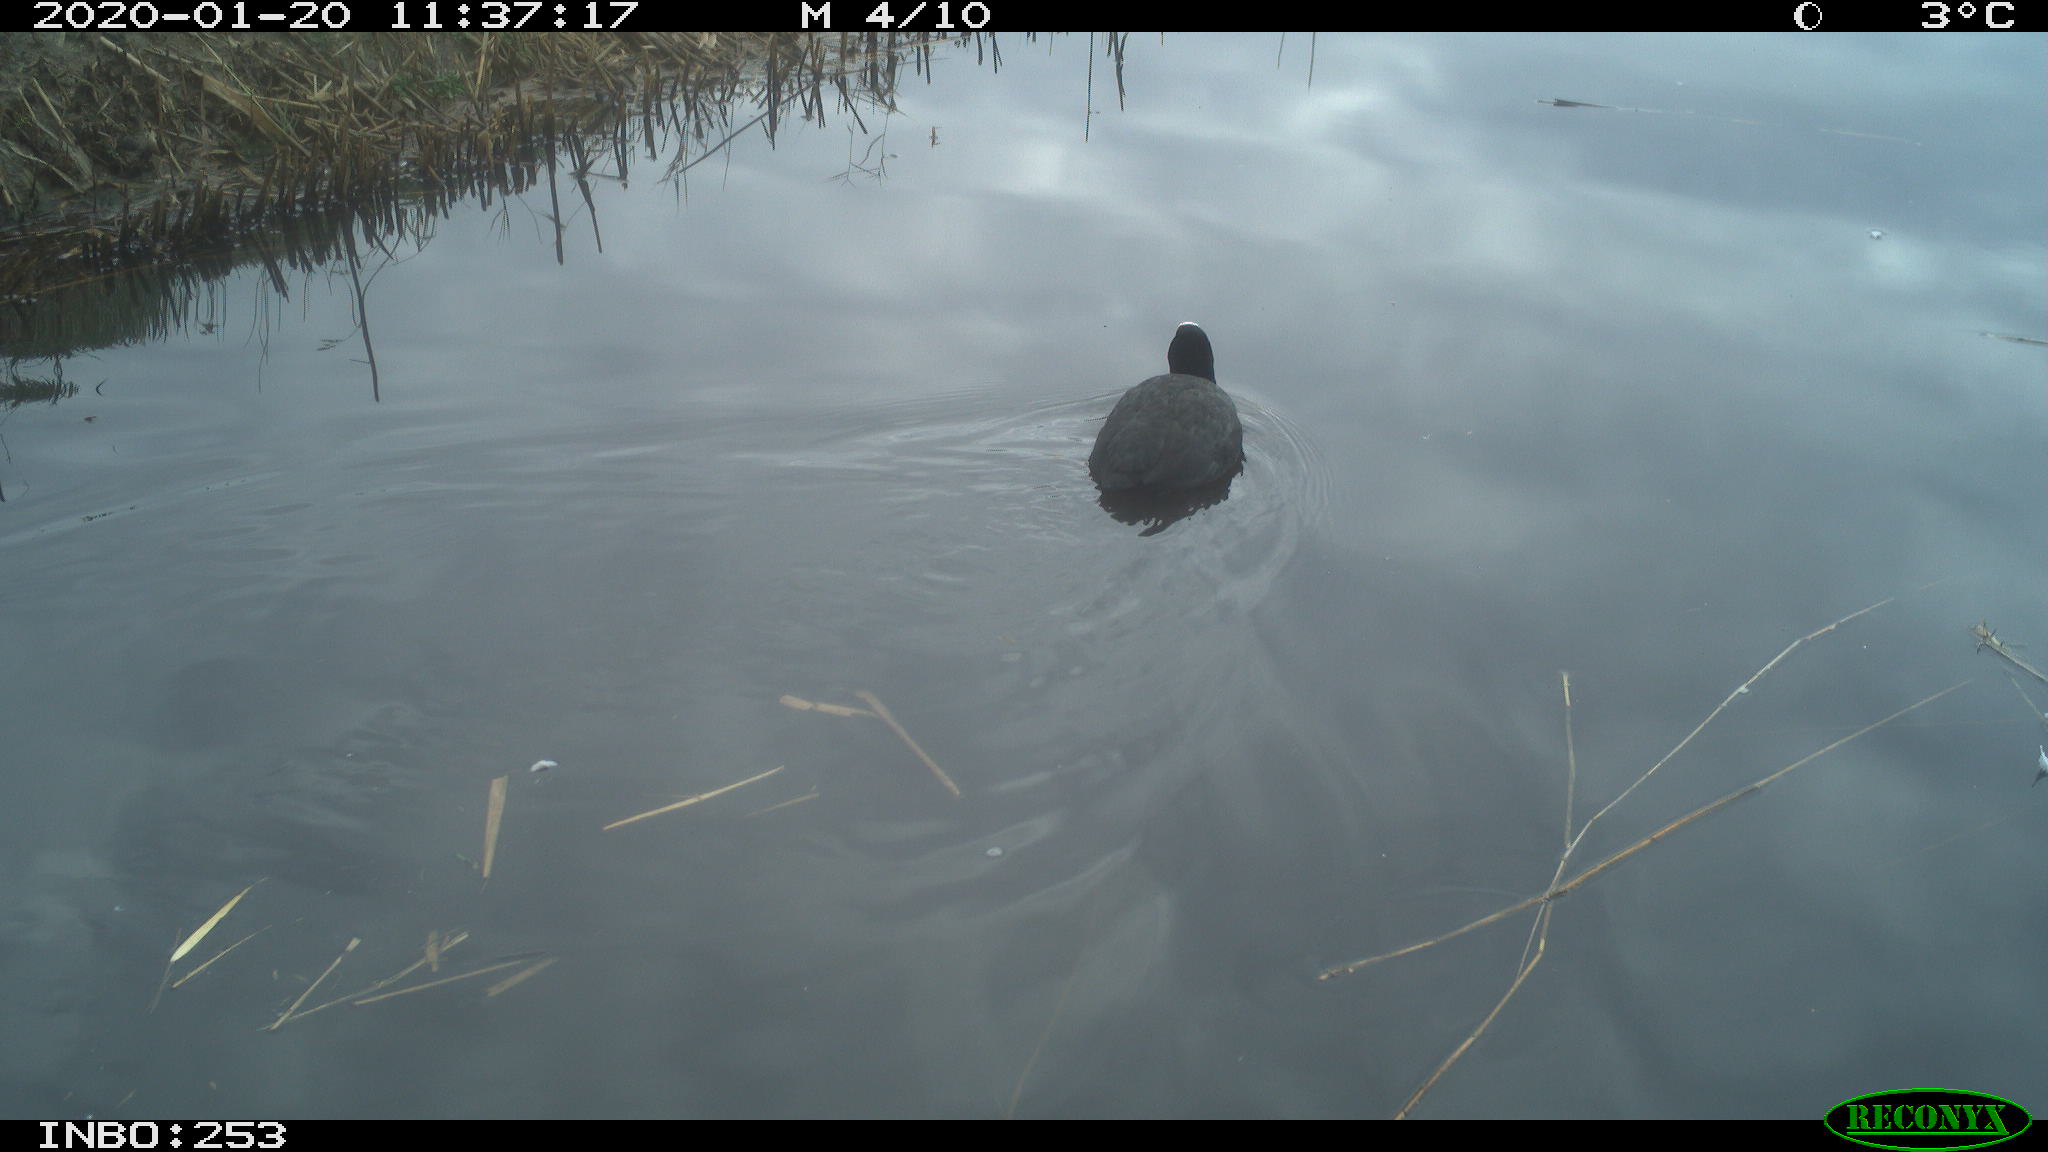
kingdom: Animalia
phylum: Chordata
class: Aves
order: Gruiformes
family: Rallidae
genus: Fulica
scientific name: Fulica atra
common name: Eurasian coot
